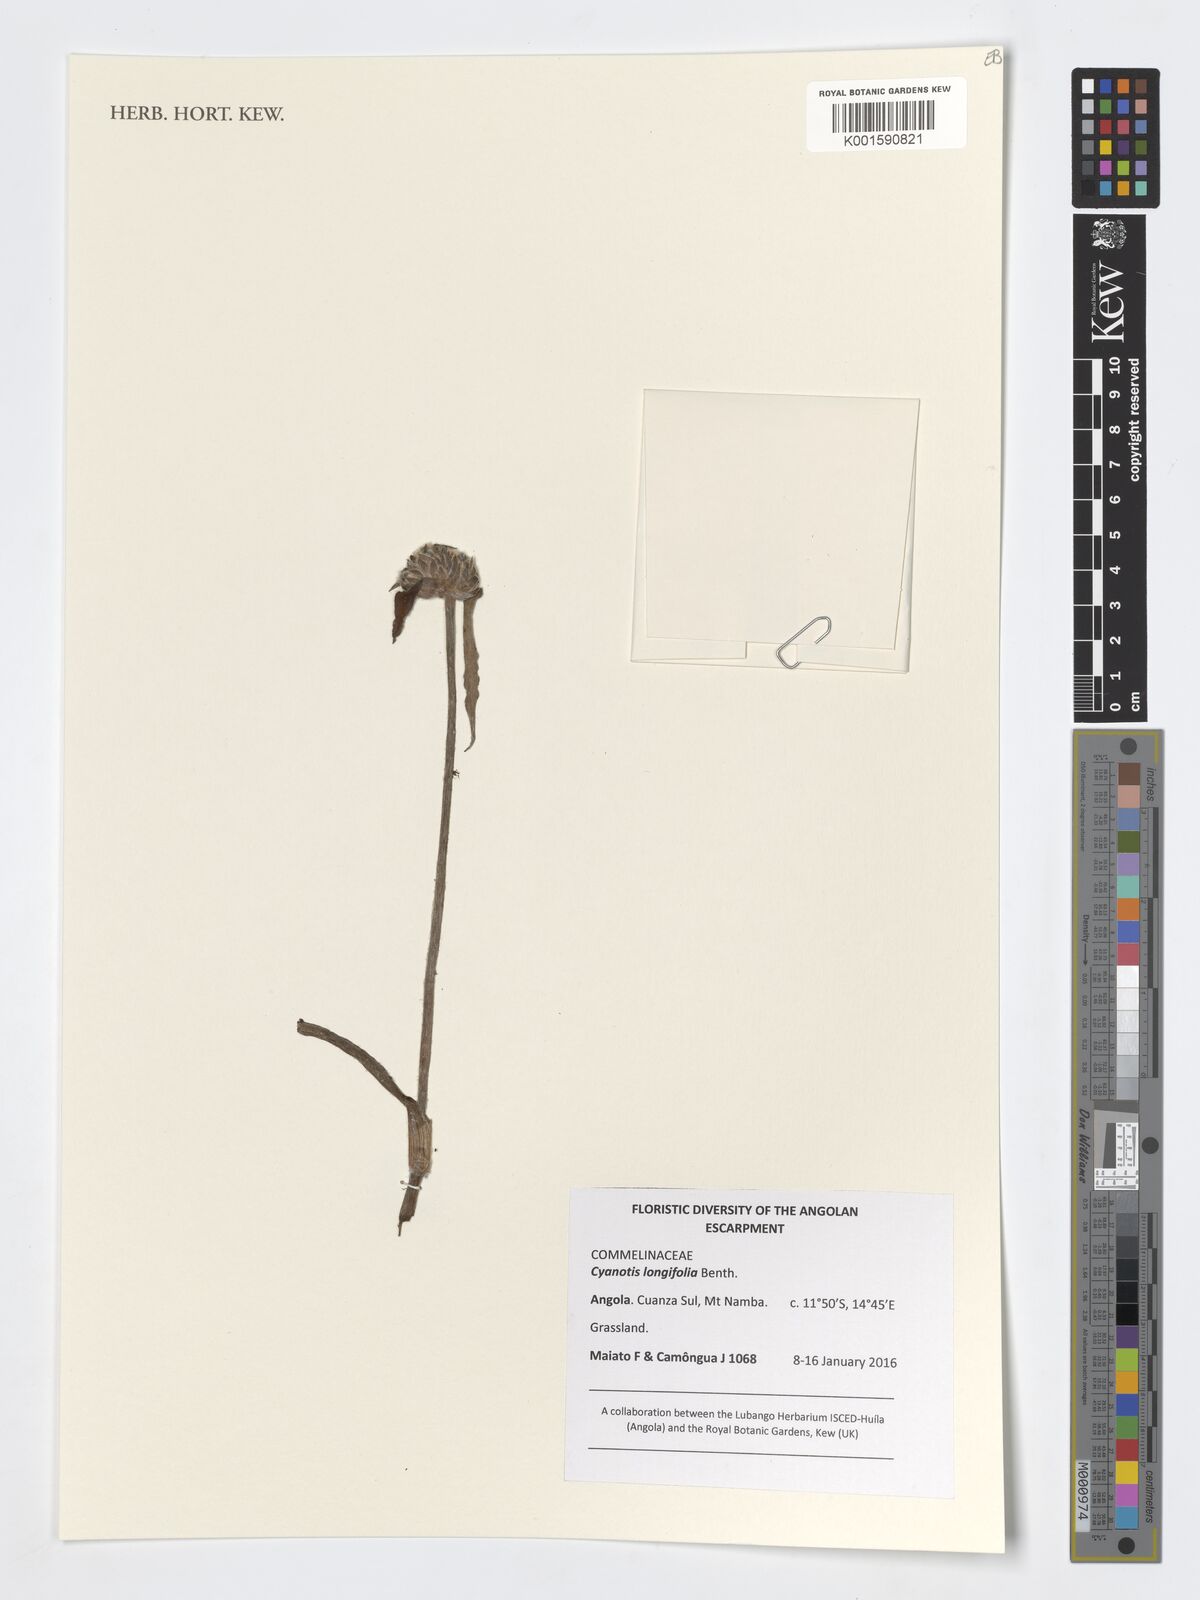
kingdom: Plantae
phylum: Tracheophyta
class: Liliopsida
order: Commelinales
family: Commelinaceae
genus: Cyanotis
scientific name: Cyanotis longifolia
